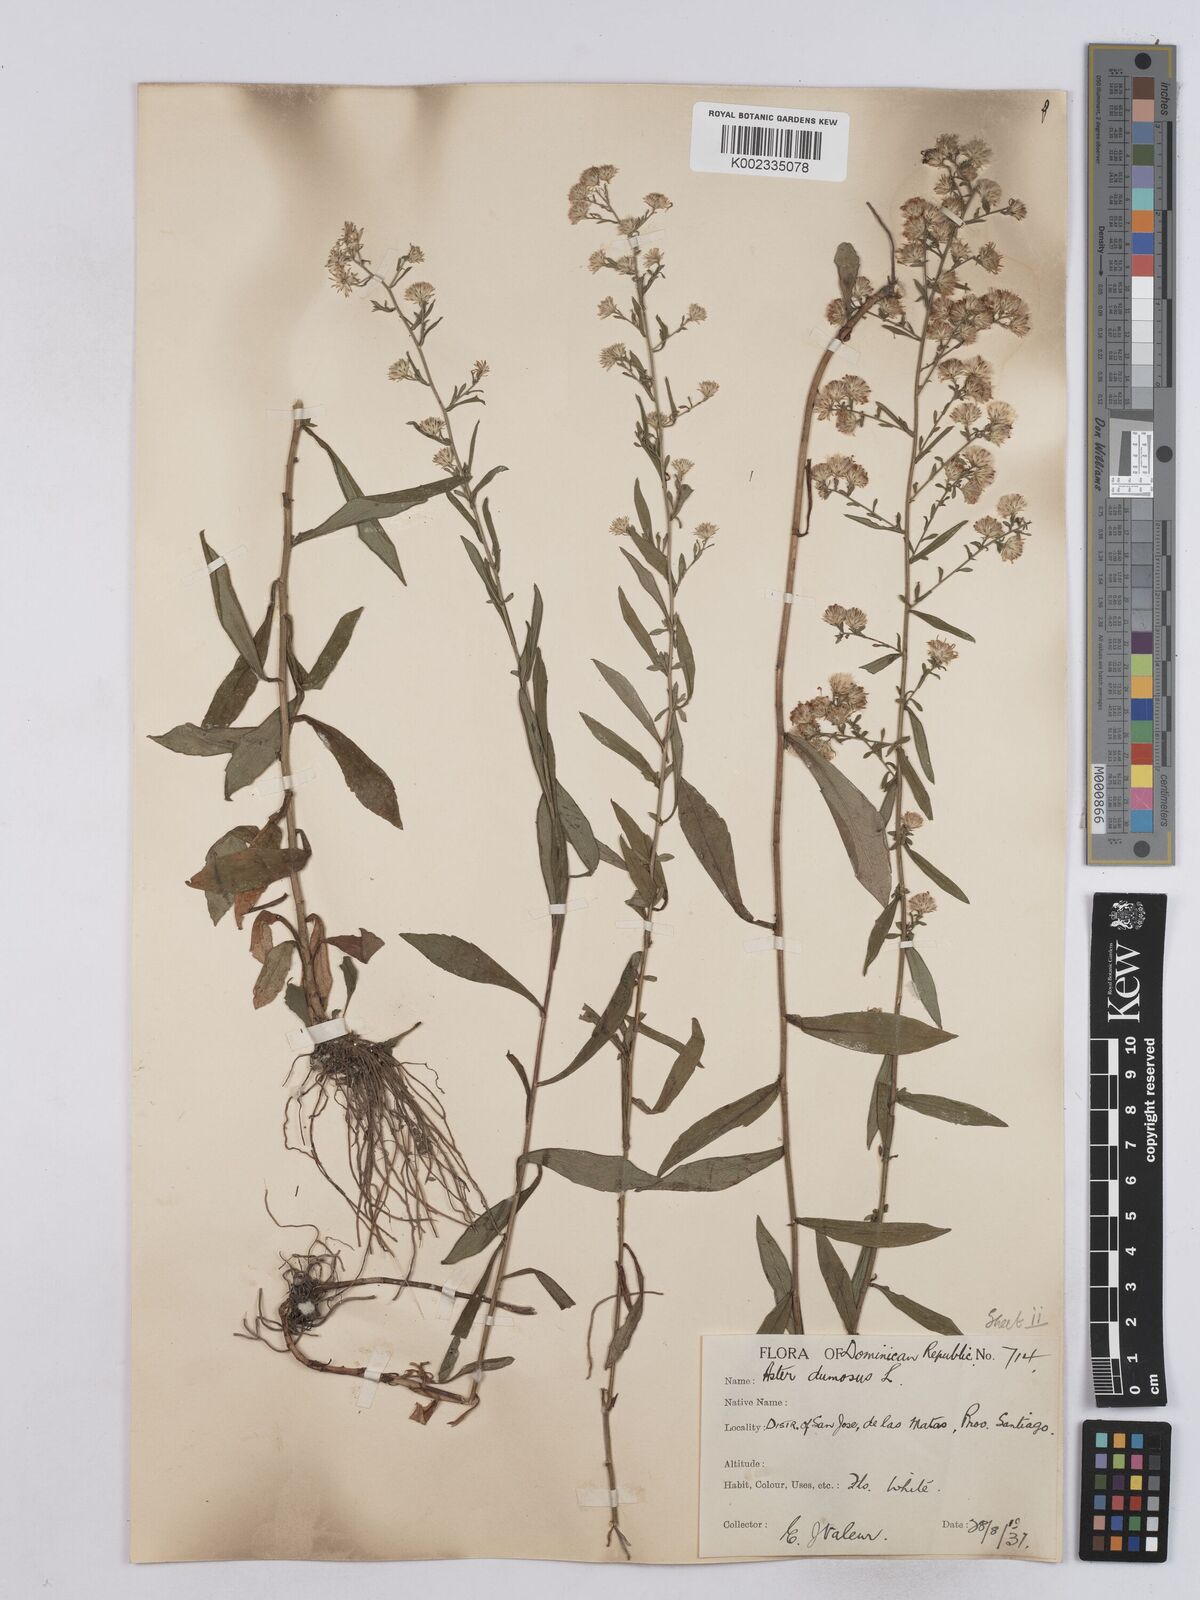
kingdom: Plantae
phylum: Tracheophyta
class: Magnoliopsida
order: Asterales
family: Asteraceae
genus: Symphyotrichum
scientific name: Symphyotrichum dumosum
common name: Bushy aster
